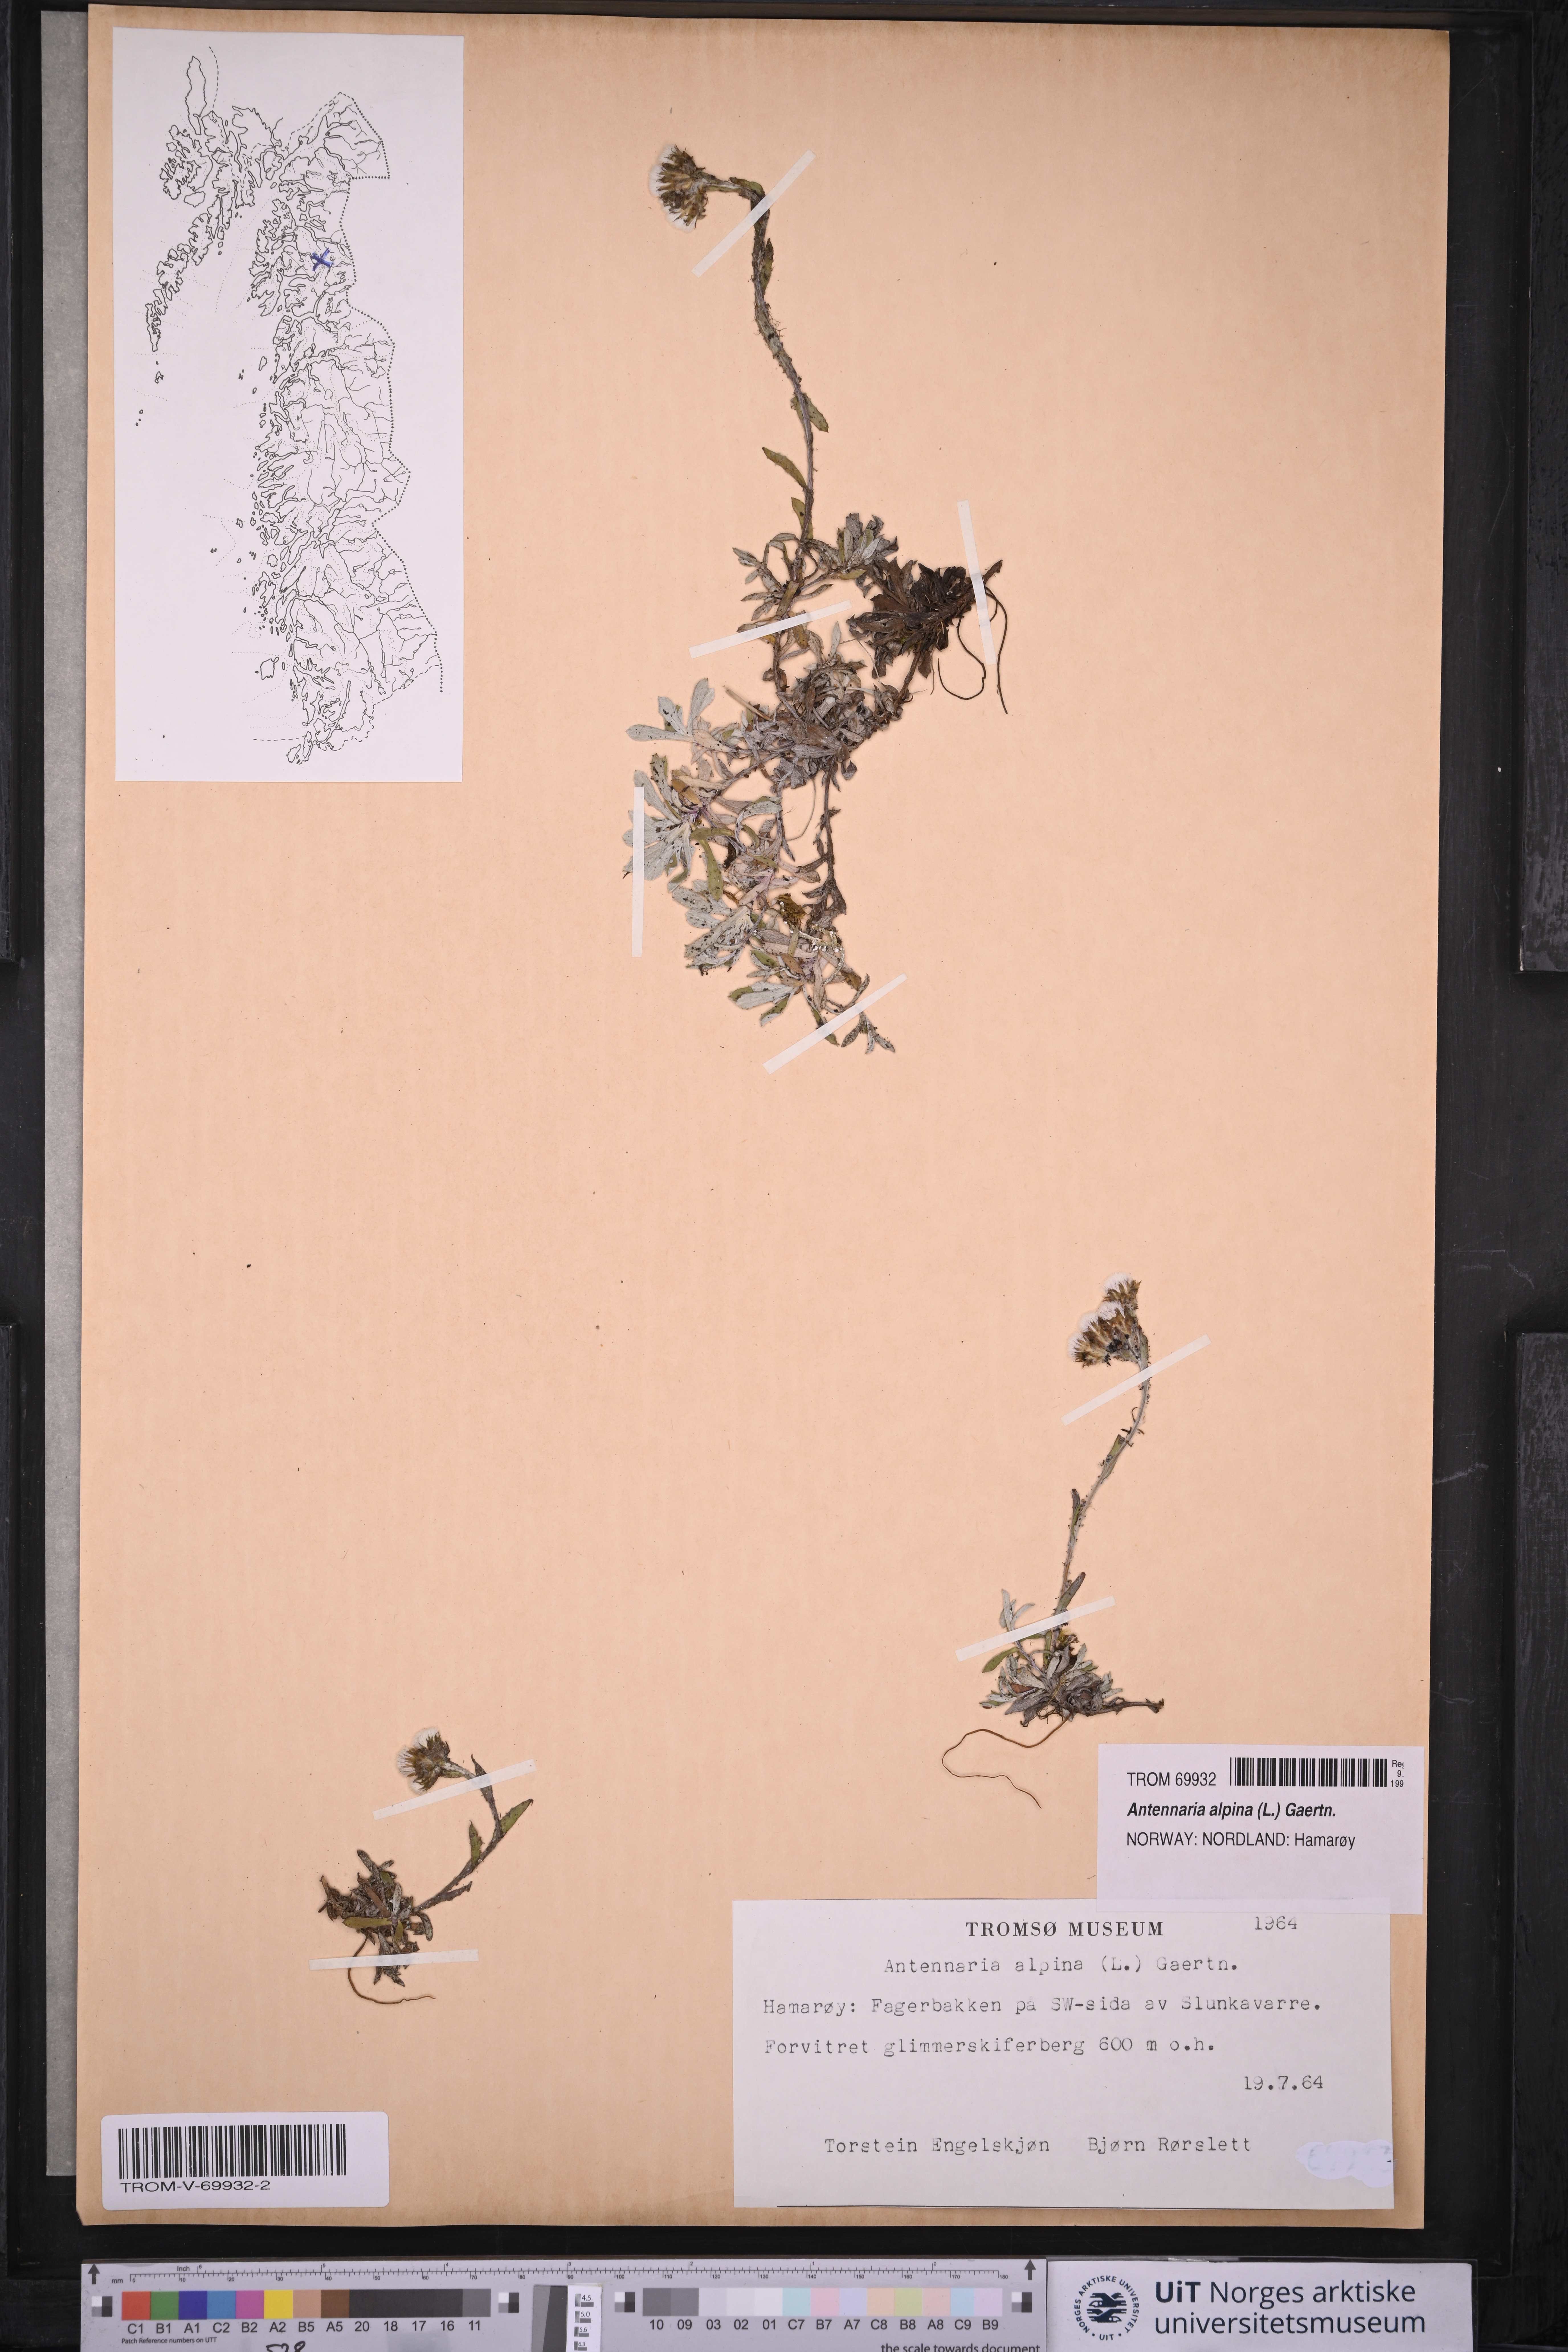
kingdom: Plantae
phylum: Tracheophyta
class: Magnoliopsida
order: Asterales
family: Asteraceae
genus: Antennaria
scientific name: Antennaria alpina
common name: Alpine pussytoes
